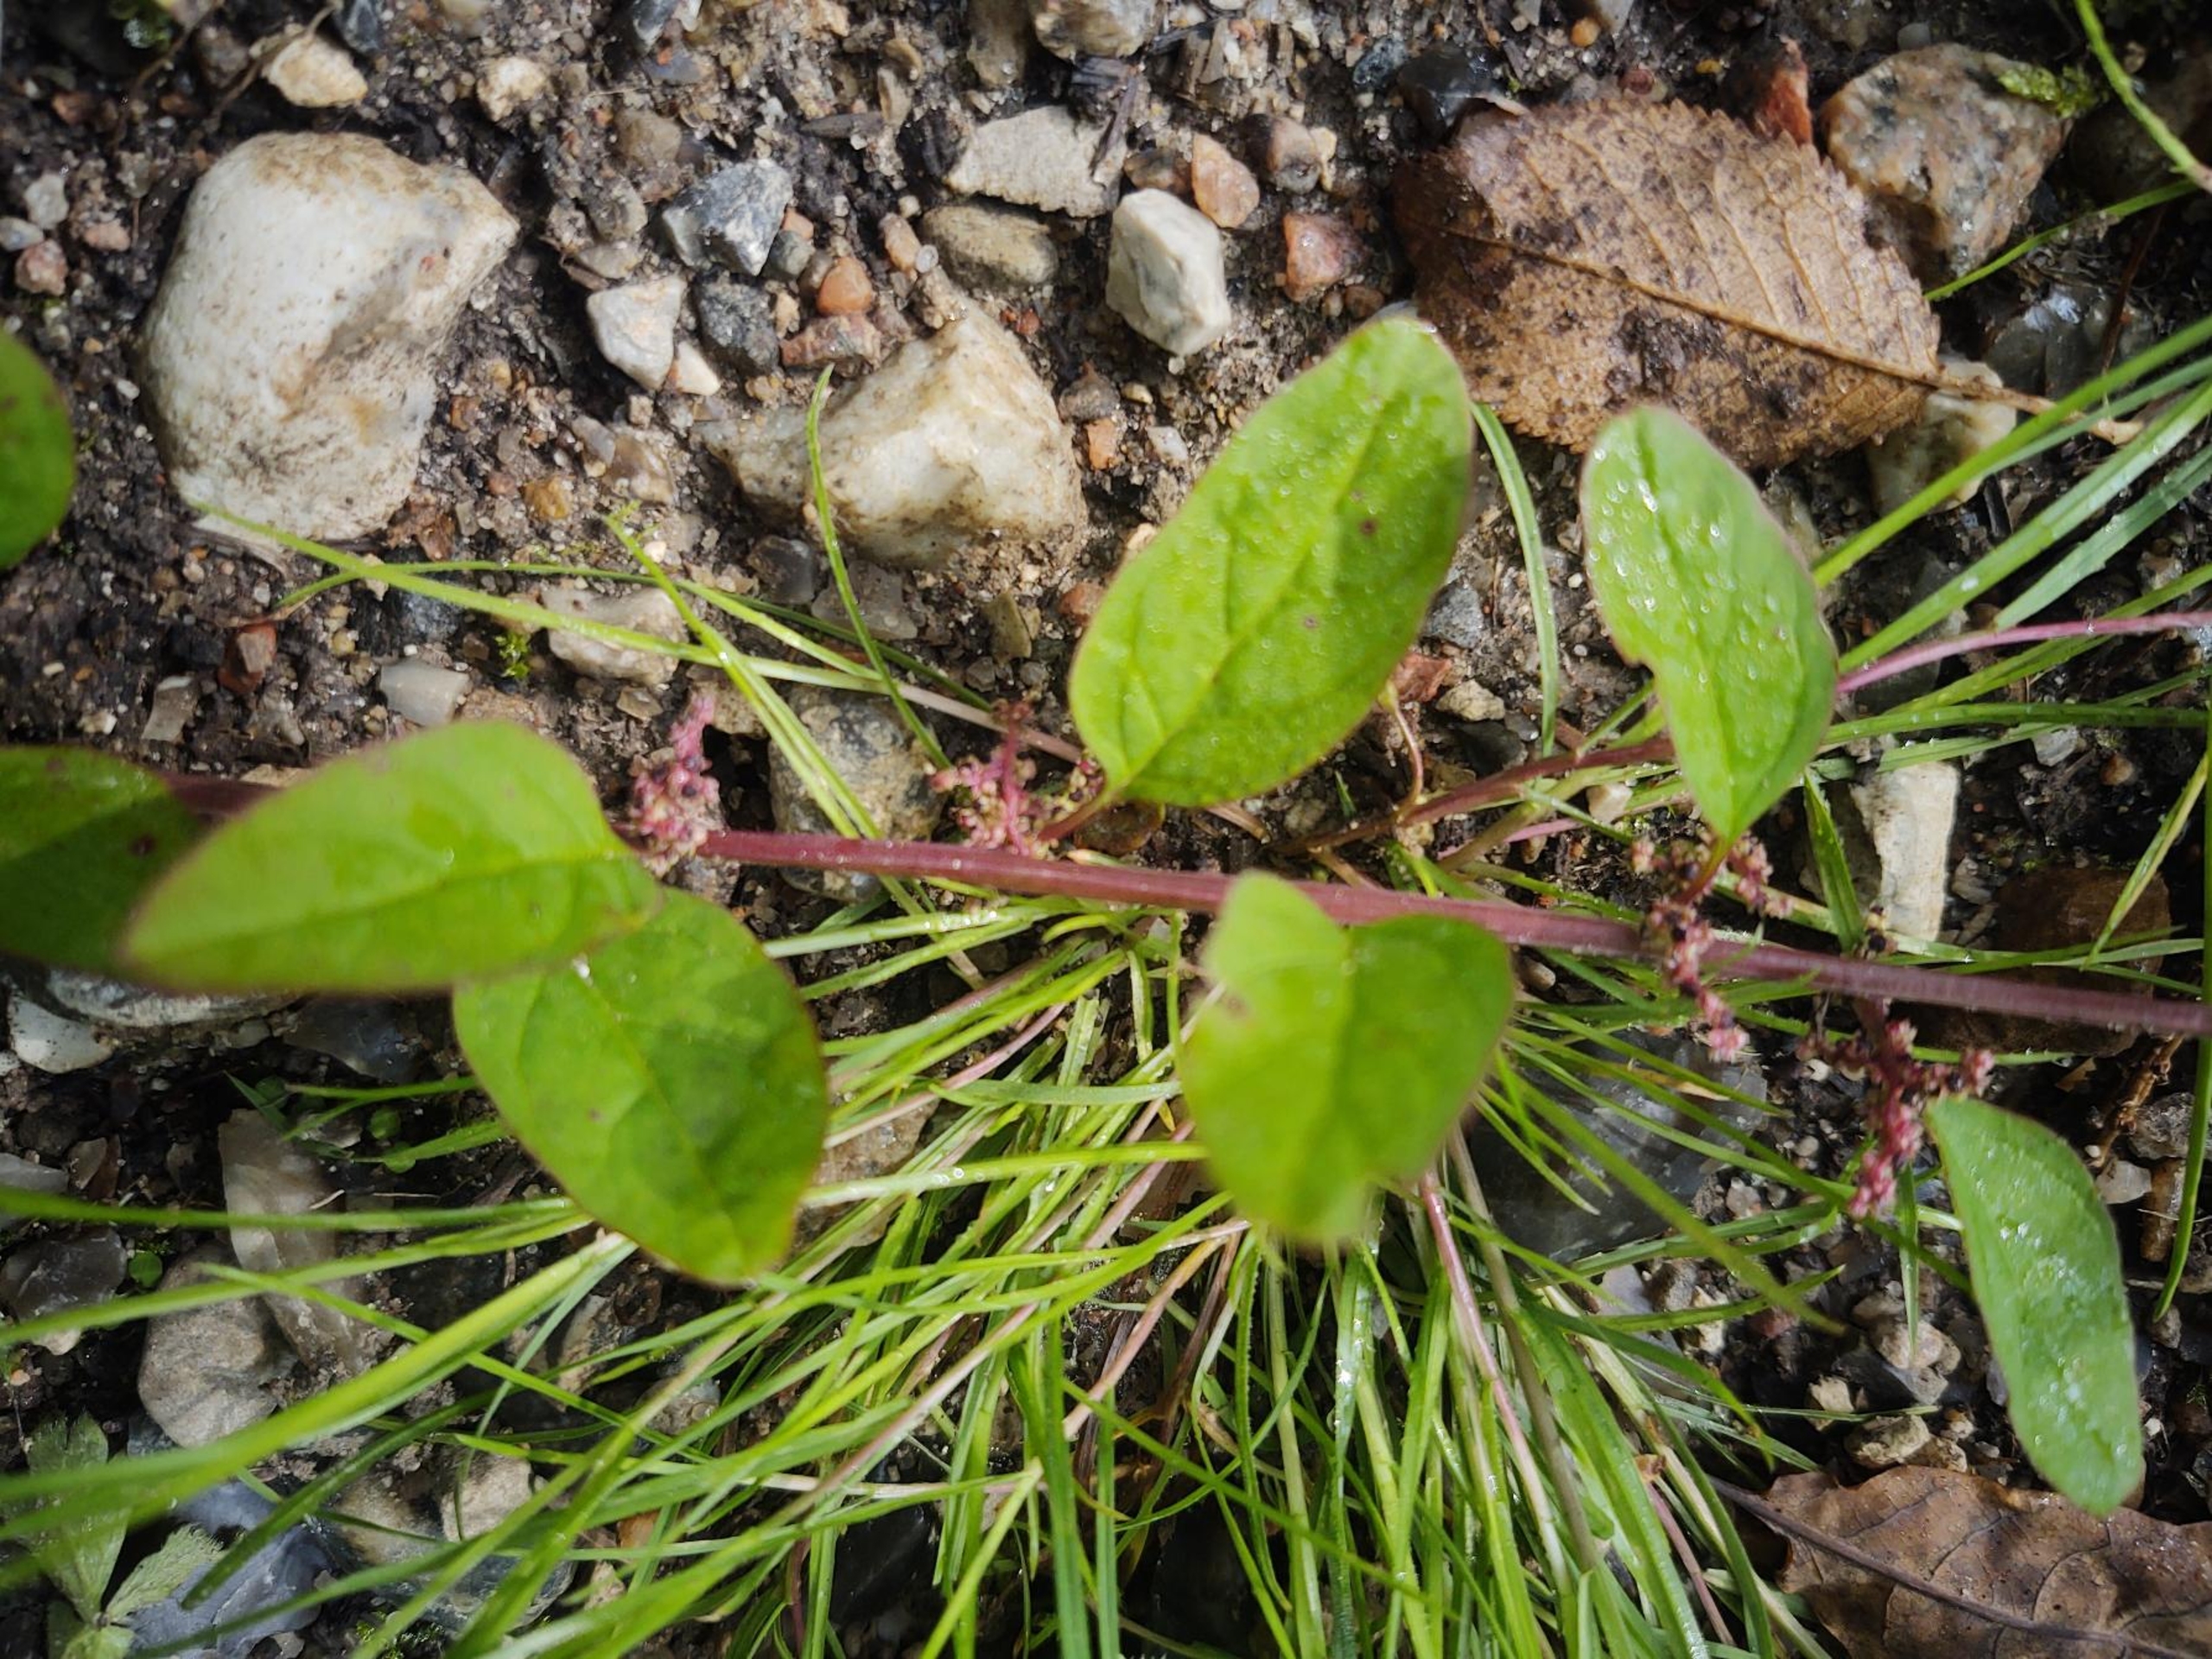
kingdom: Plantae
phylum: Tracheophyta
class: Magnoliopsida
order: Caryophyllales
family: Amaranthaceae
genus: Lipandra
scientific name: Lipandra polysperma
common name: Mangefrøet gåsefod
